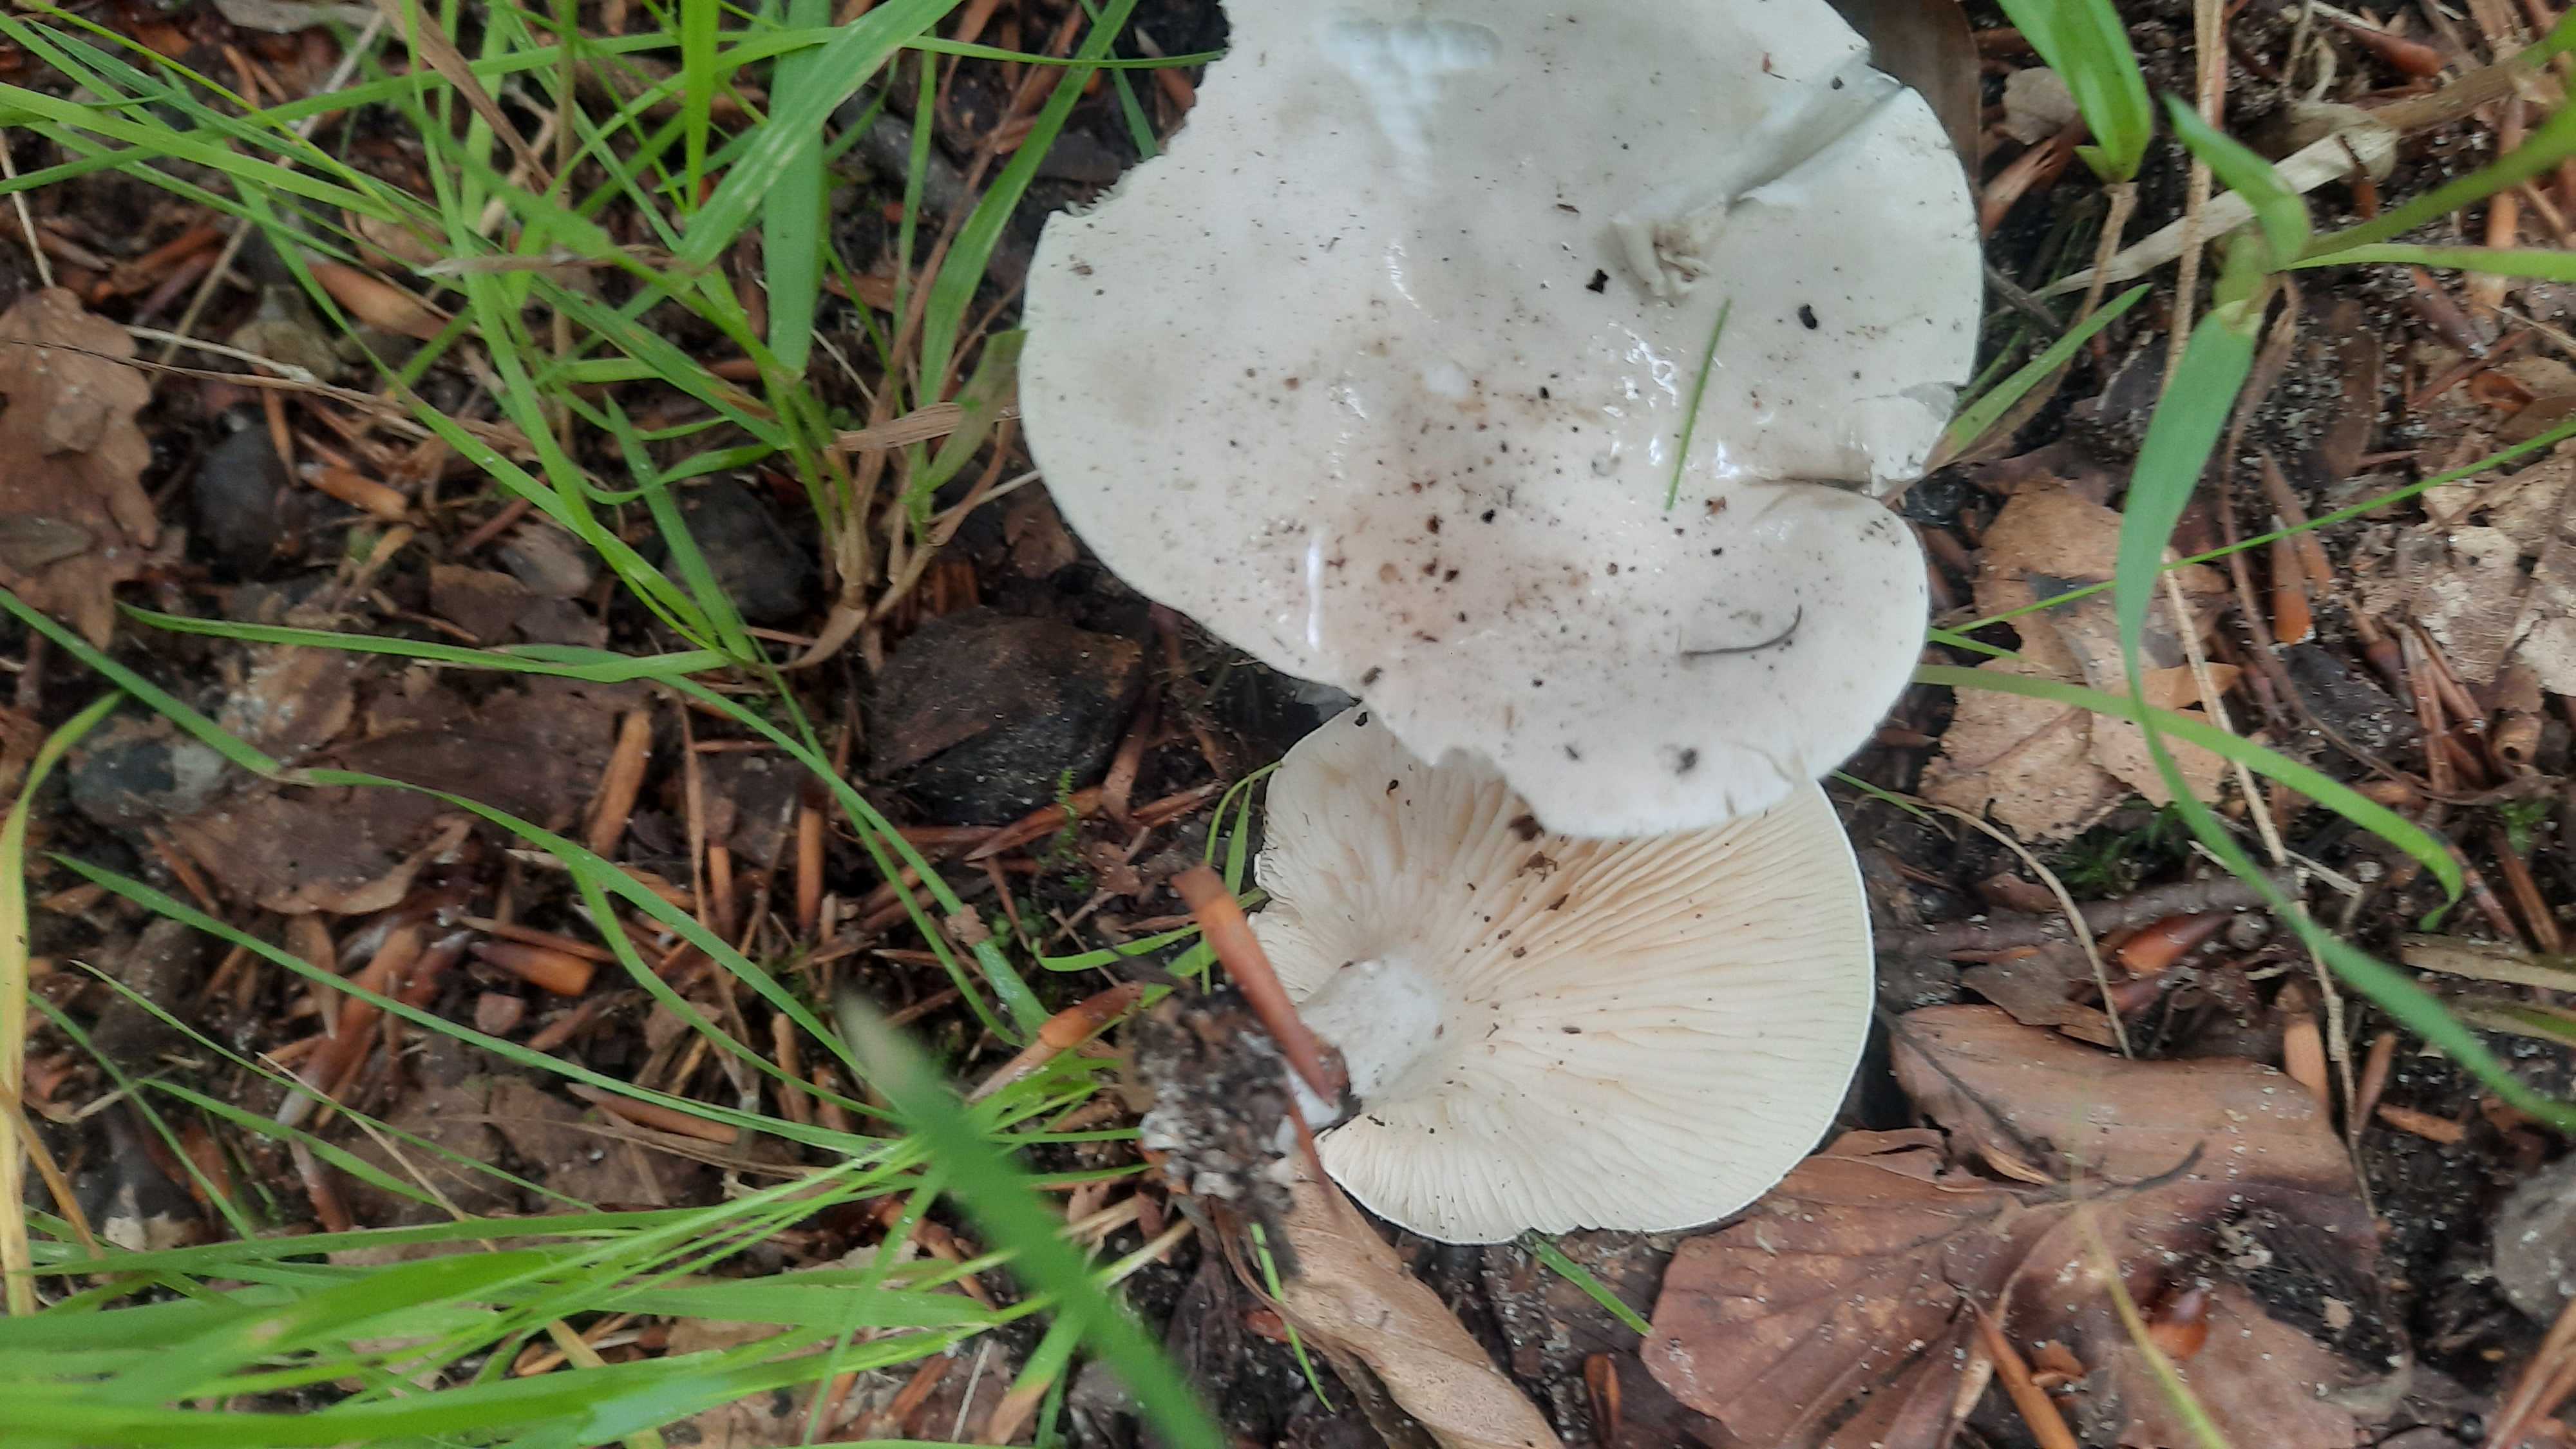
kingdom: Fungi
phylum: Basidiomycota
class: Agaricomycetes
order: Agaricales
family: Entolomataceae
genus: Clitopilus
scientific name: Clitopilus prunulus
